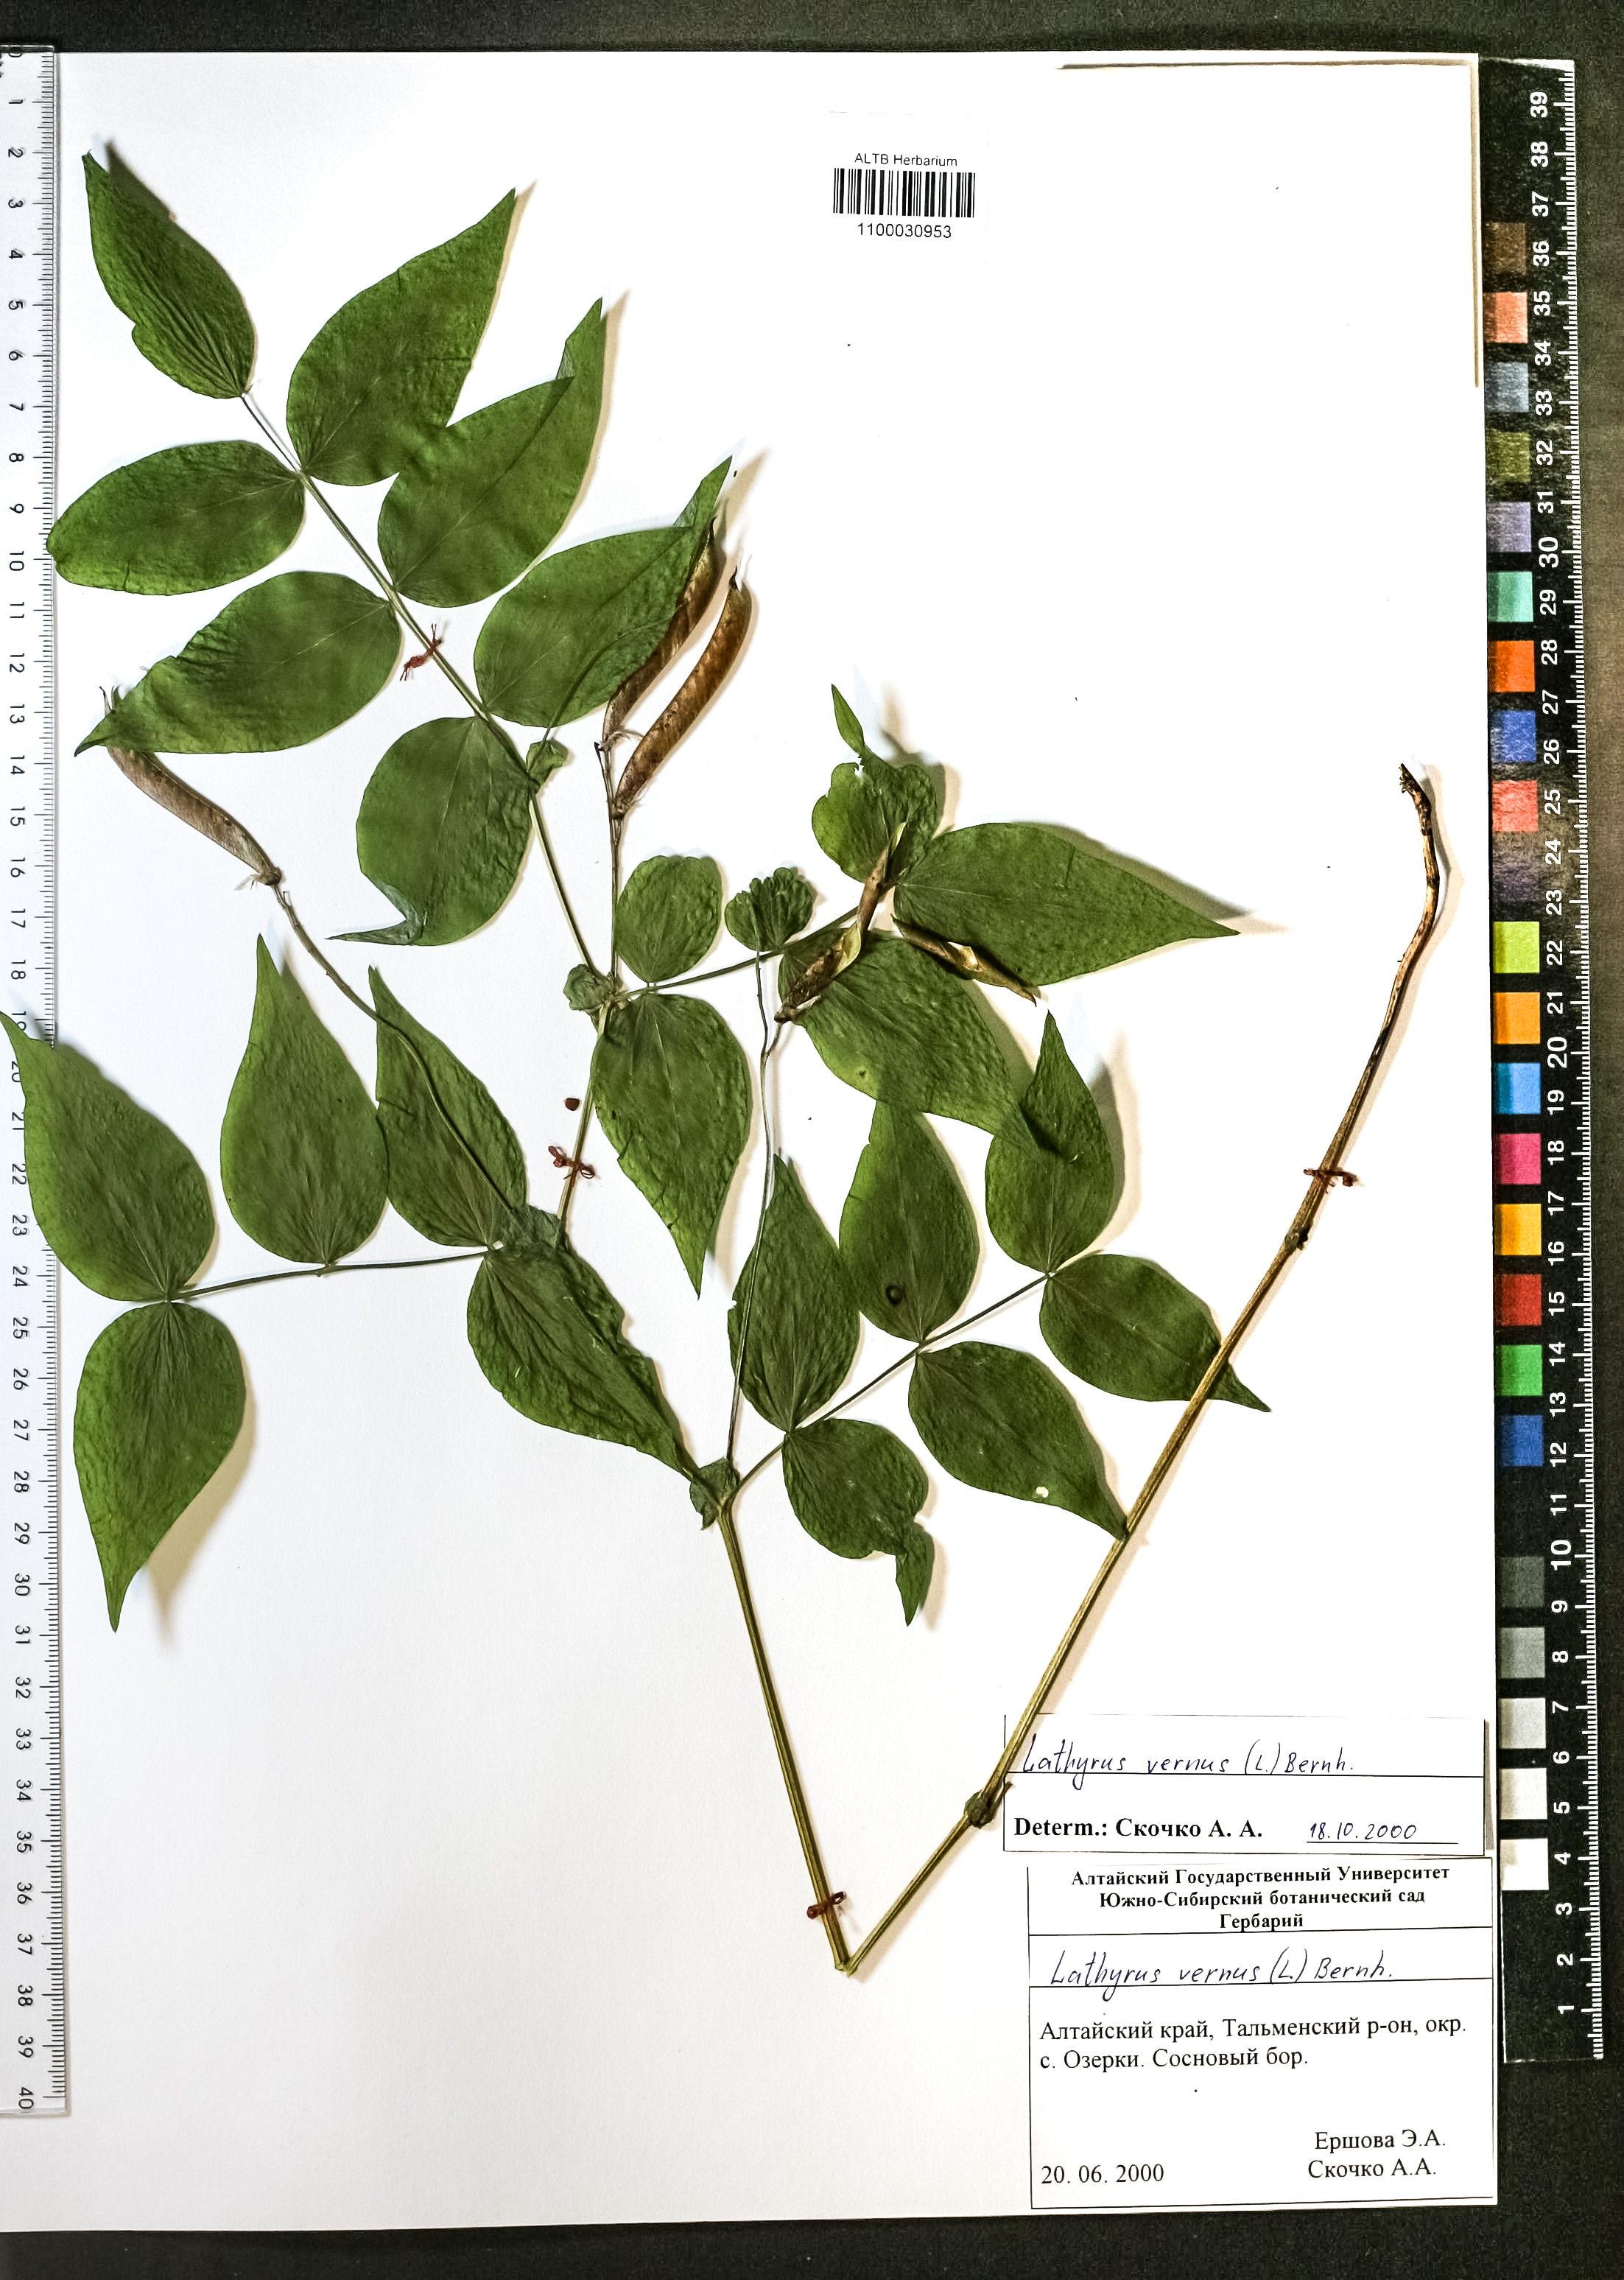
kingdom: Plantae
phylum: Tracheophyta
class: Magnoliopsida
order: Fabales
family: Fabaceae
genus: Lathyrus
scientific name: Lathyrus vernus
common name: Spring pea
